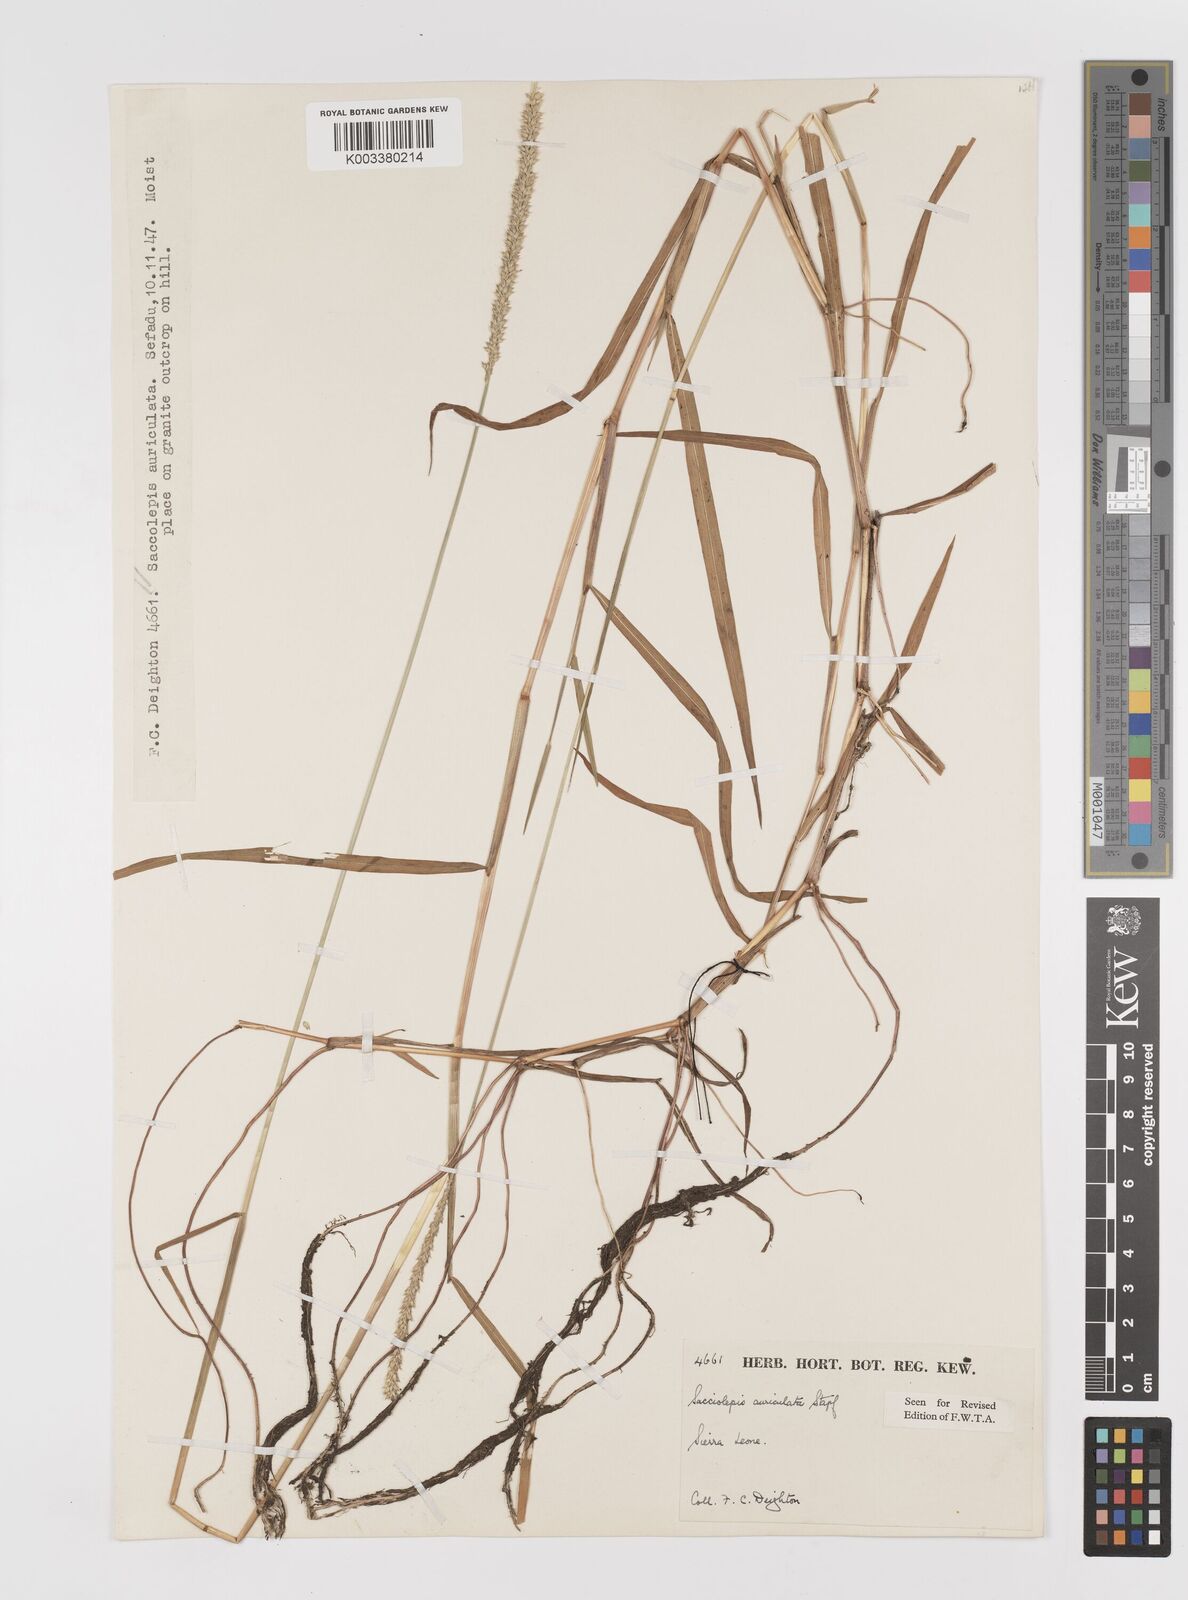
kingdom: Plantae
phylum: Tracheophyta
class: Liliopsida
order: Poales
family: Poaceae
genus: Sacciolepis
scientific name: Sacciolepis indica
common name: Glenwoodgrass
